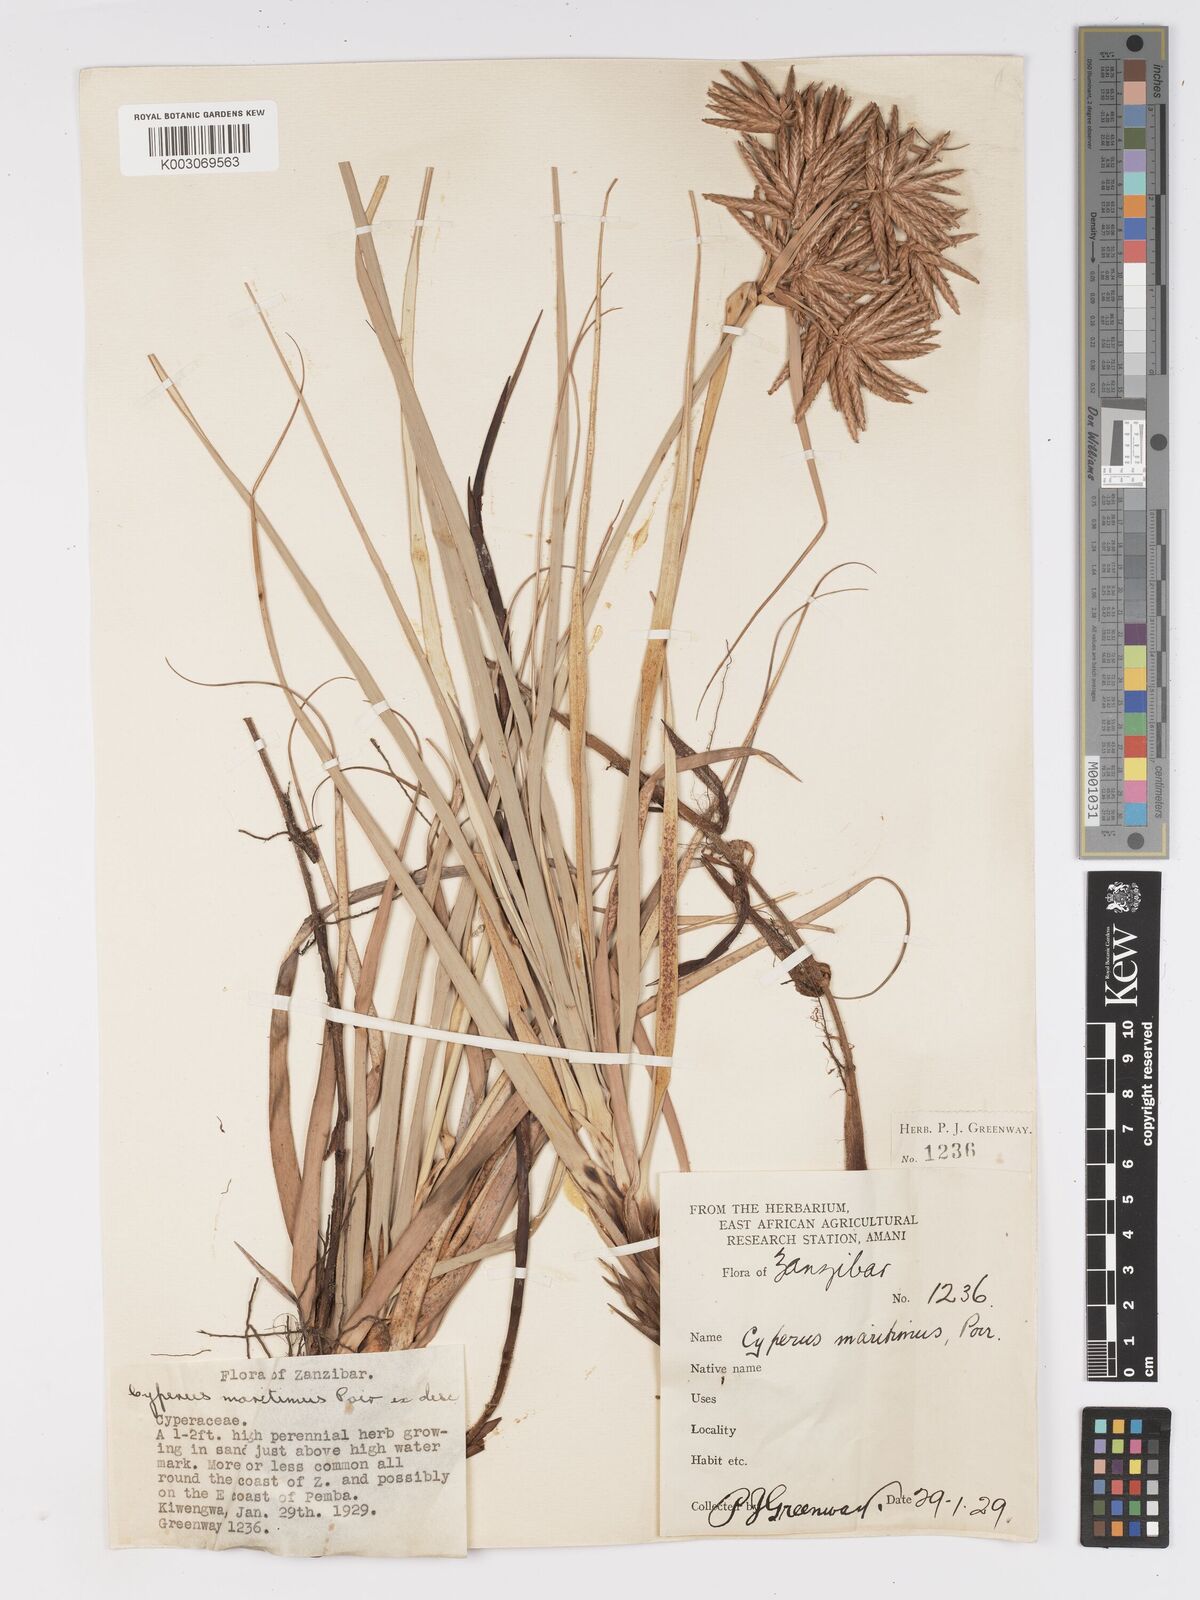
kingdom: Plantae
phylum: Tracheophyta
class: Liliopsida
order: Poales
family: Cyperaceae
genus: Cyperus
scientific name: Cyperus crassipes
